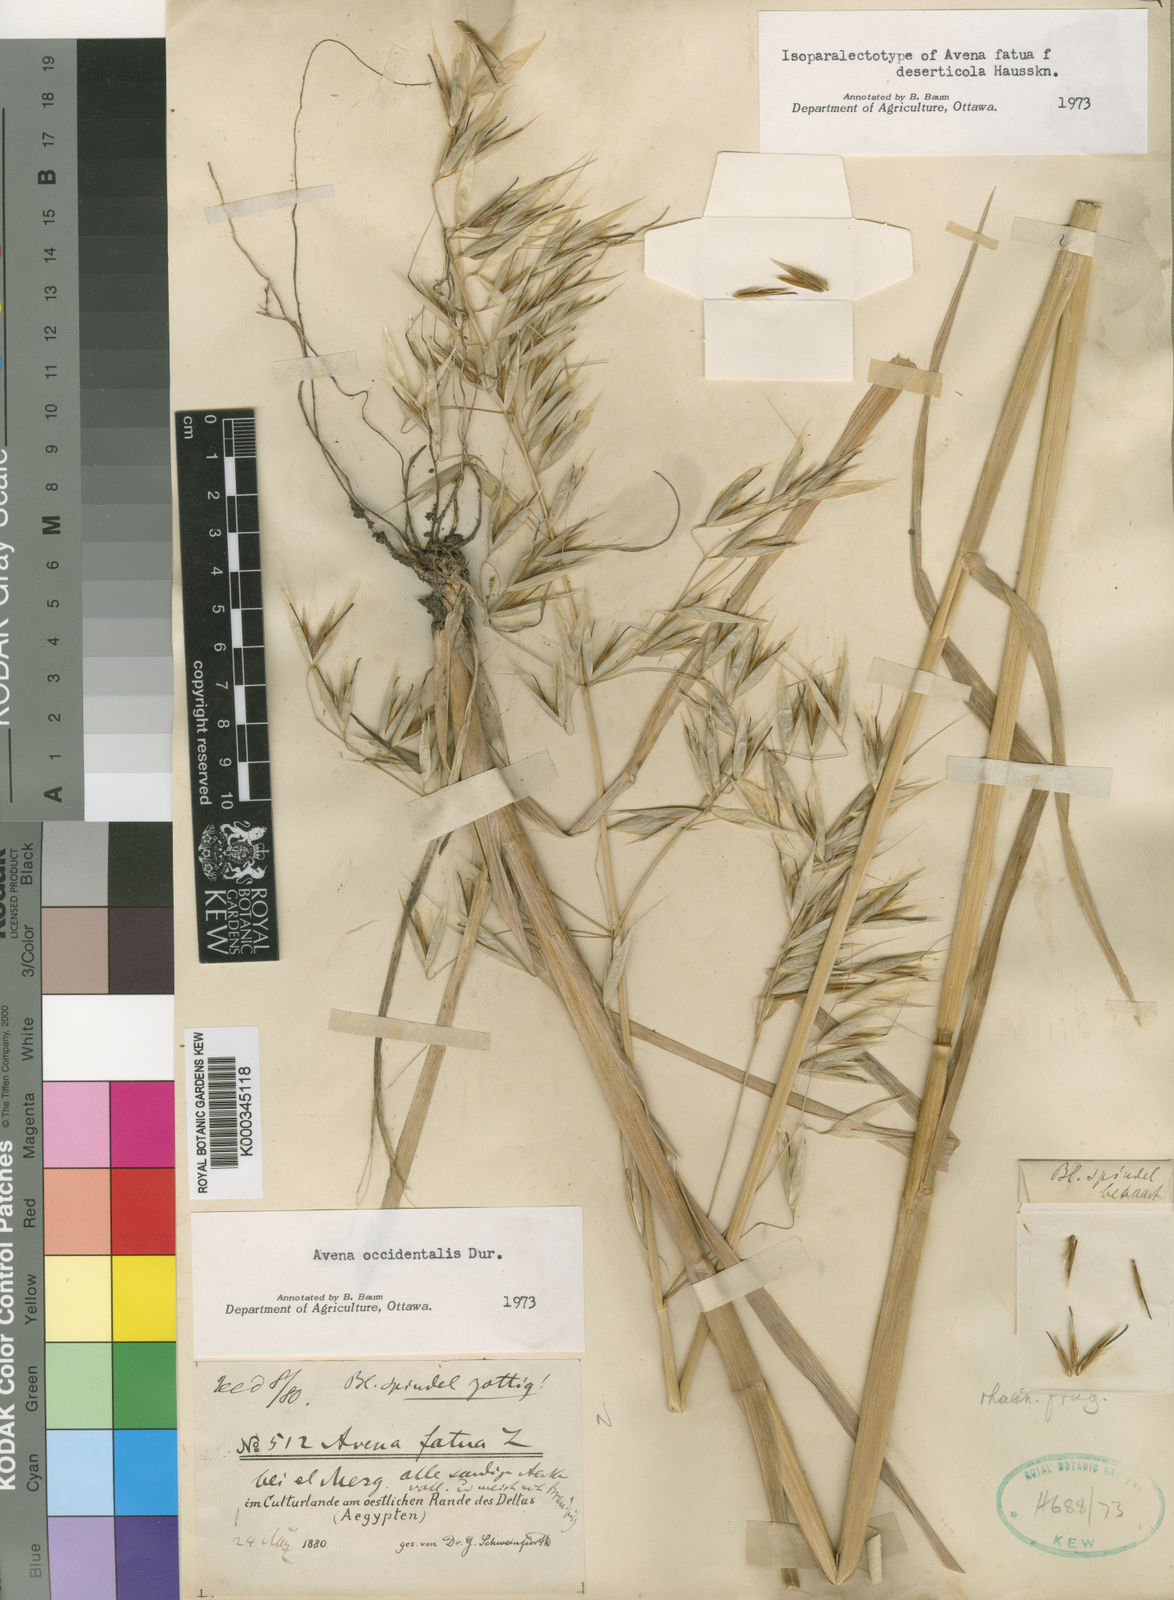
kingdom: Plantae
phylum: Tracheophyta
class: Liliopsida
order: Poales
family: Poaceae
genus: Avena
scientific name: Avena fatua
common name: Wild oat
